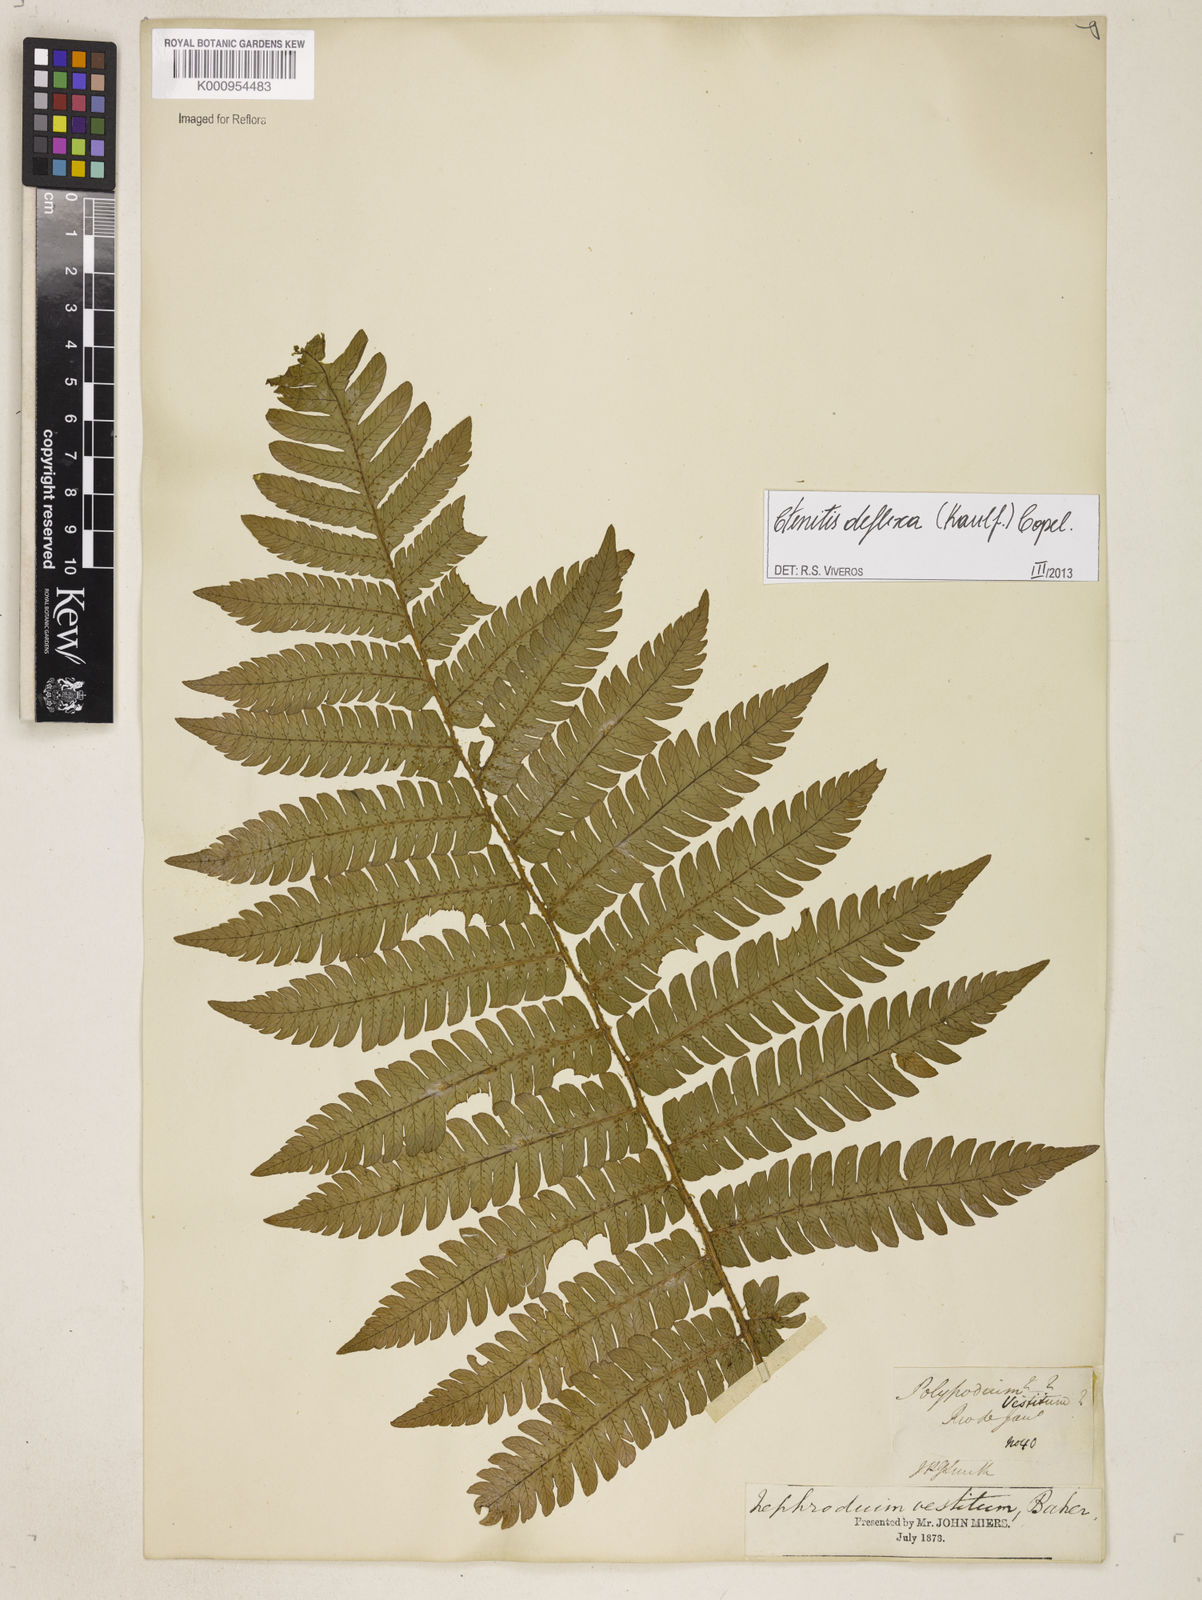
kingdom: Plantae
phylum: Tracheophyta
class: Polypodiopsida
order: Polypodiales
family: Dryopteridaceae
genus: Ctenitis
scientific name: Ctenitis deflexa
